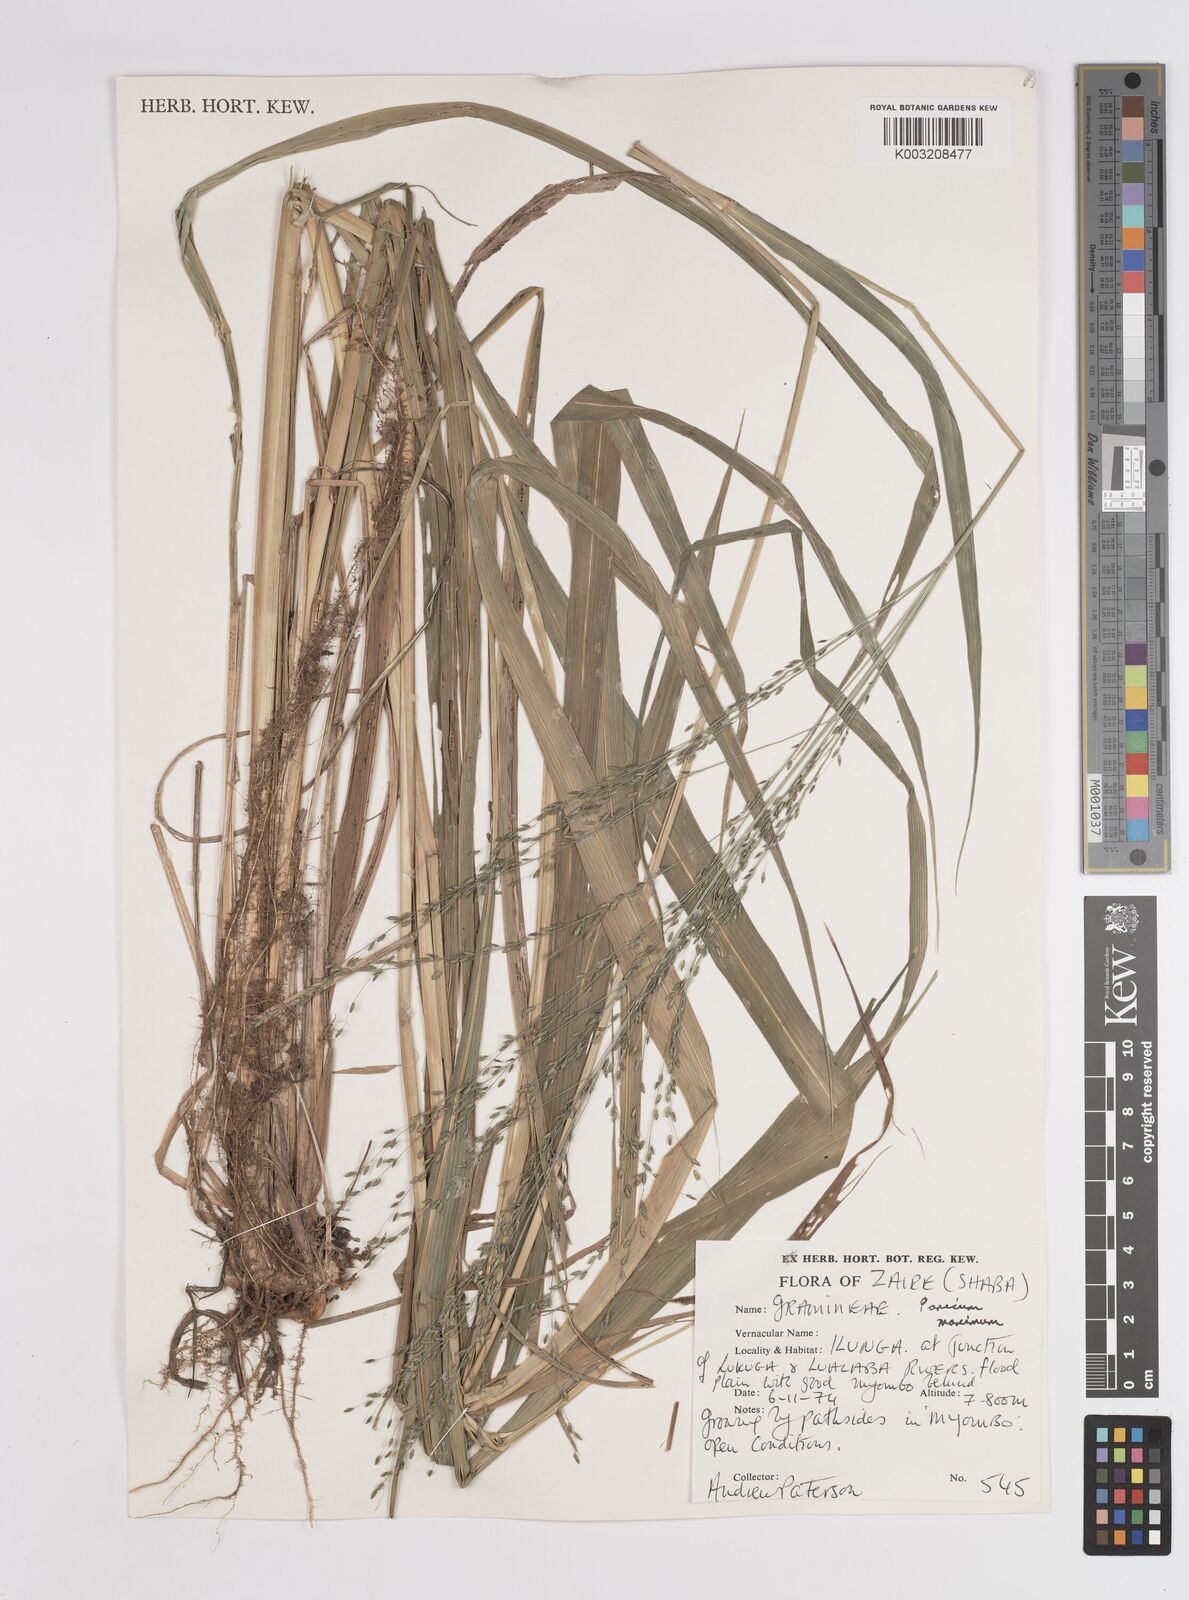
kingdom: Plantae
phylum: Tracheophyta
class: Liliopsida
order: Poales
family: Poaceae
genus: Megathyrsus
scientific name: Megathyrsus maximus
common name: Guineagrass
